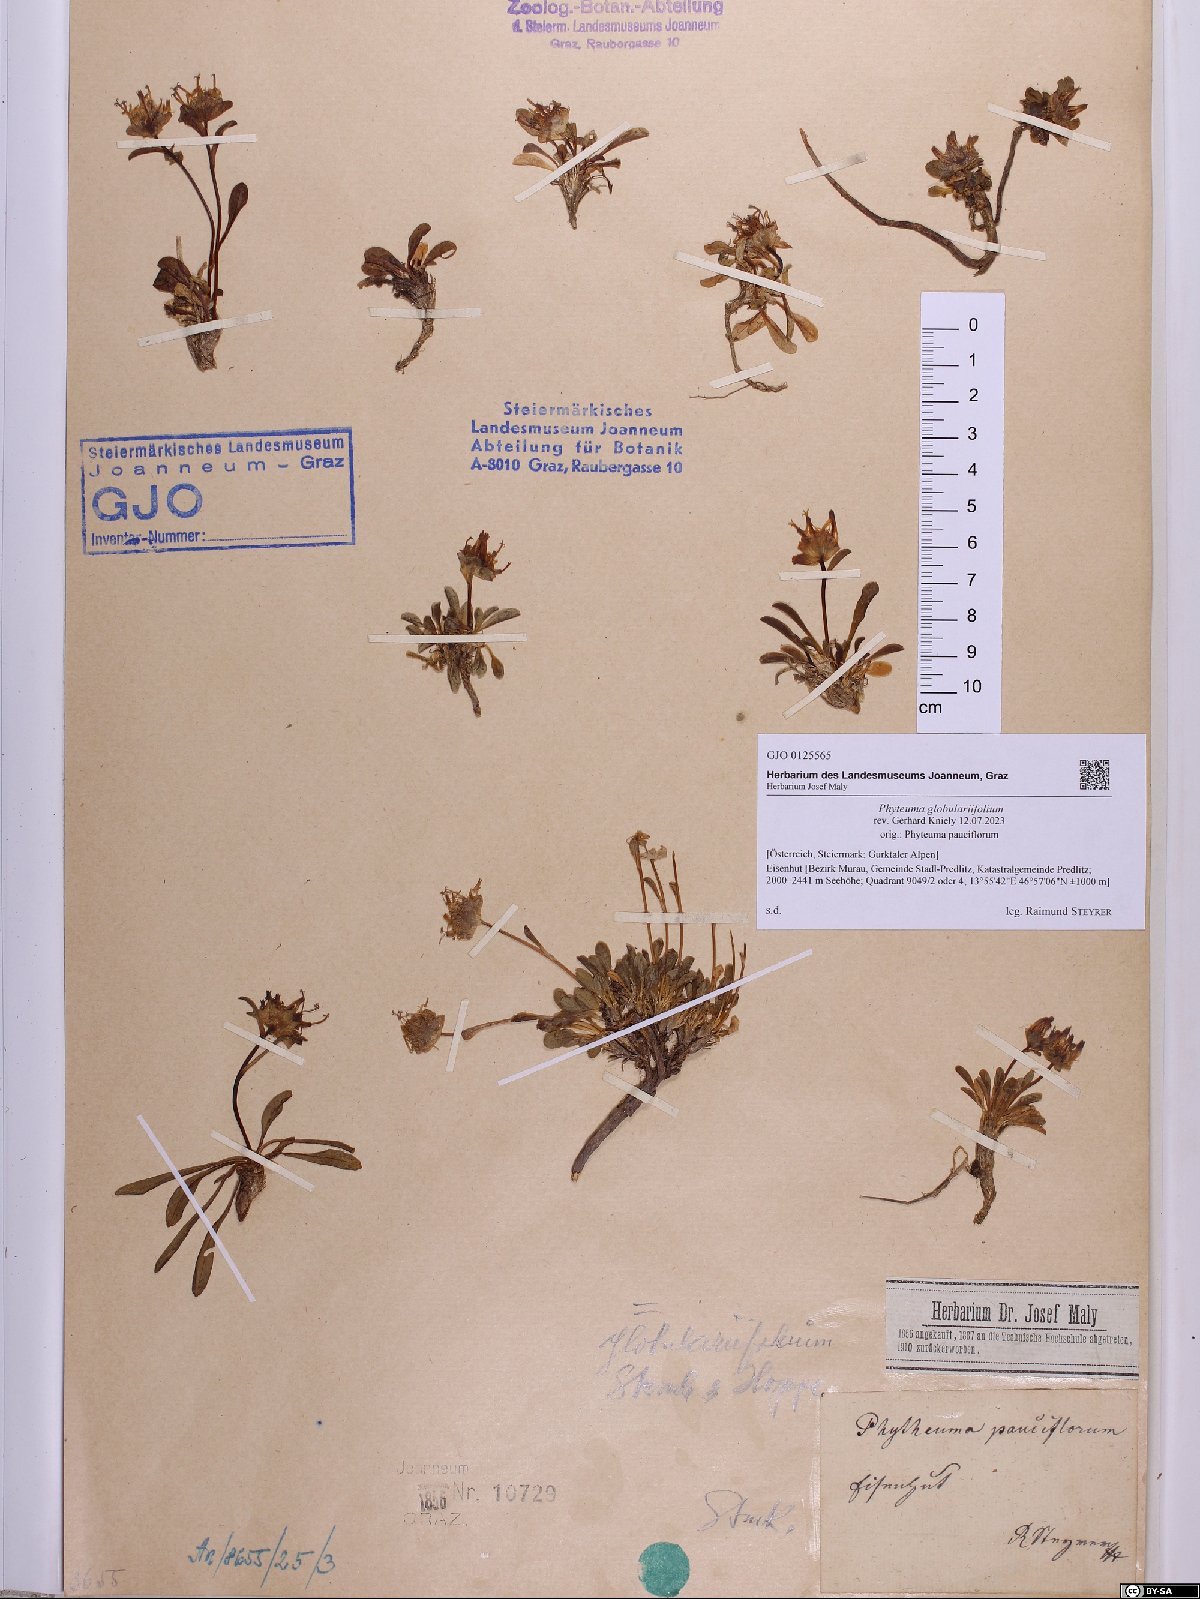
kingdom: Plantae
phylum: Tracheophyta
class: Magnoliopsida
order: Asterales
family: Campanulaceae
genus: Phyteuma
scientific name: Phyteuma globulariifolium
